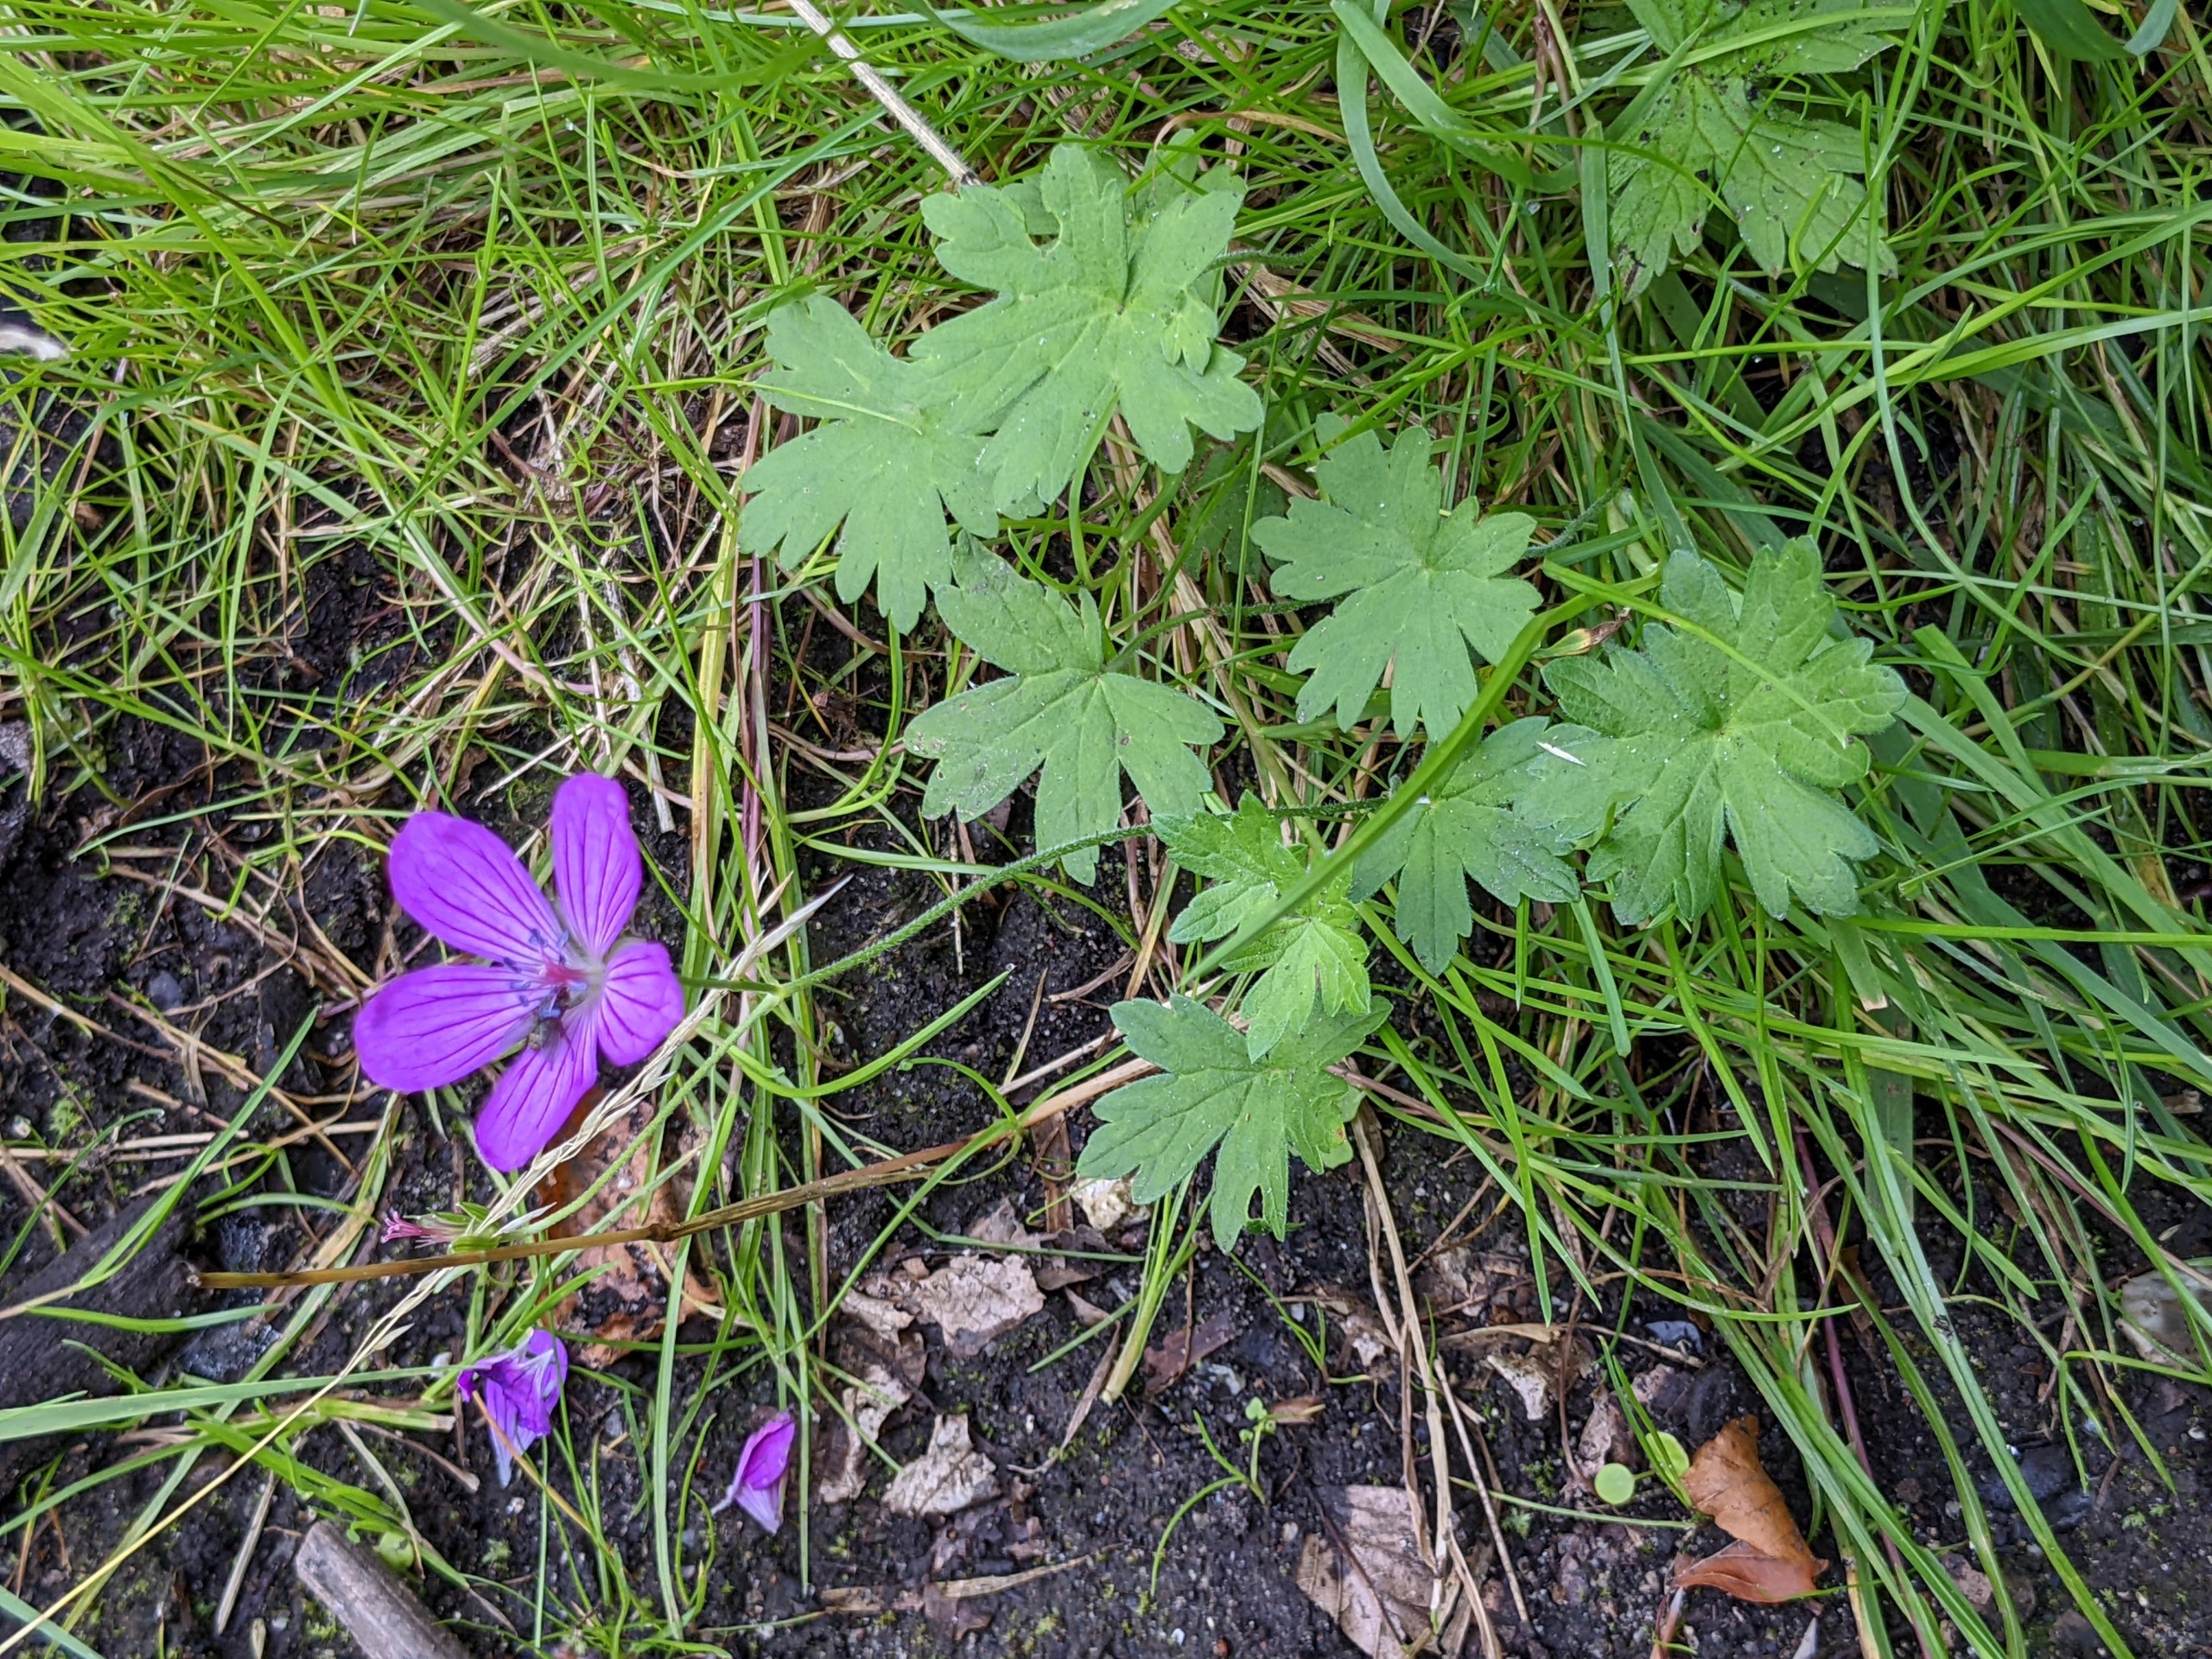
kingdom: Plantae
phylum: Tracheophyta
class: Magnoliopsida
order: Geraniales
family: Geraniaceae
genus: Geranium
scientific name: Geranium palustre
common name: Kær-storkenæb
